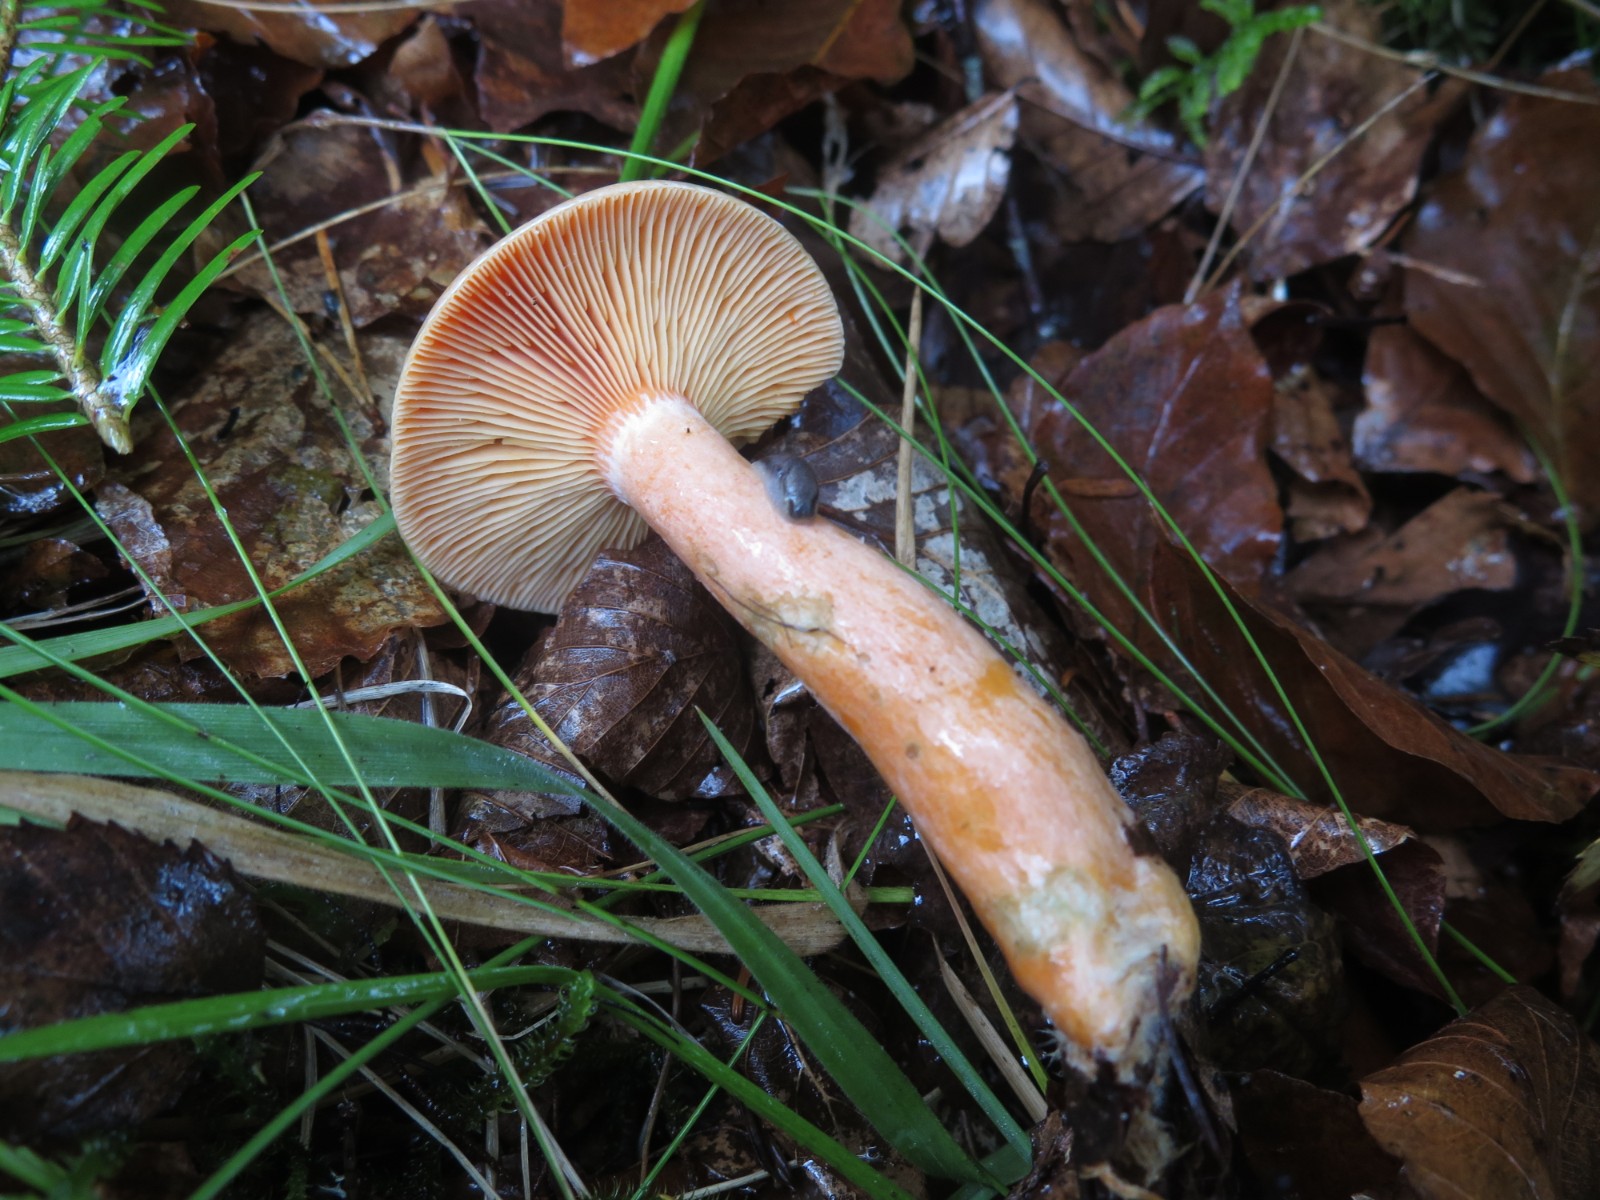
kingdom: Fungi
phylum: Basidiomycota
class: Agaricomycetes
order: Russulales
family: Russulaceae
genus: Lactarius
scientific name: Lactarius deterrimus
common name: gran-mælkehat
